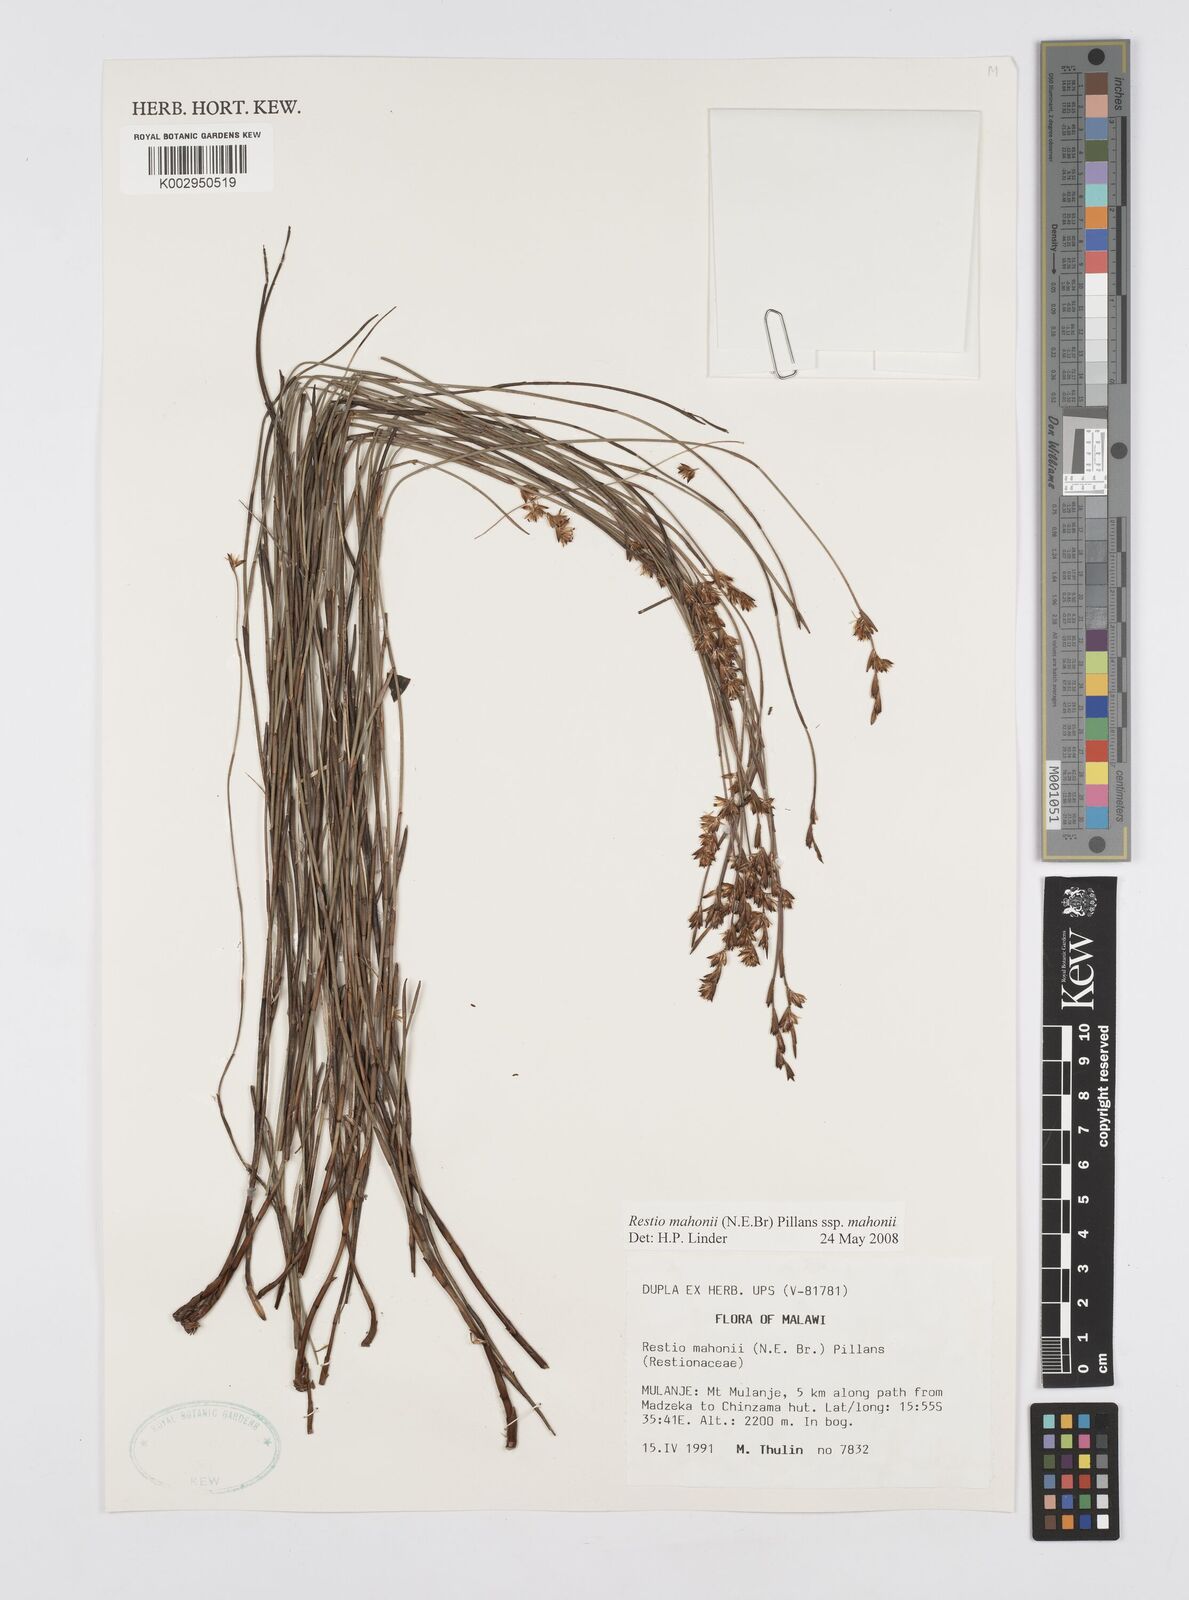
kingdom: Plantae
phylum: Tracheophyta
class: Liliopsida
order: Poales
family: Restionaceae
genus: Platycaulos
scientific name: Platycaulos mahonii
